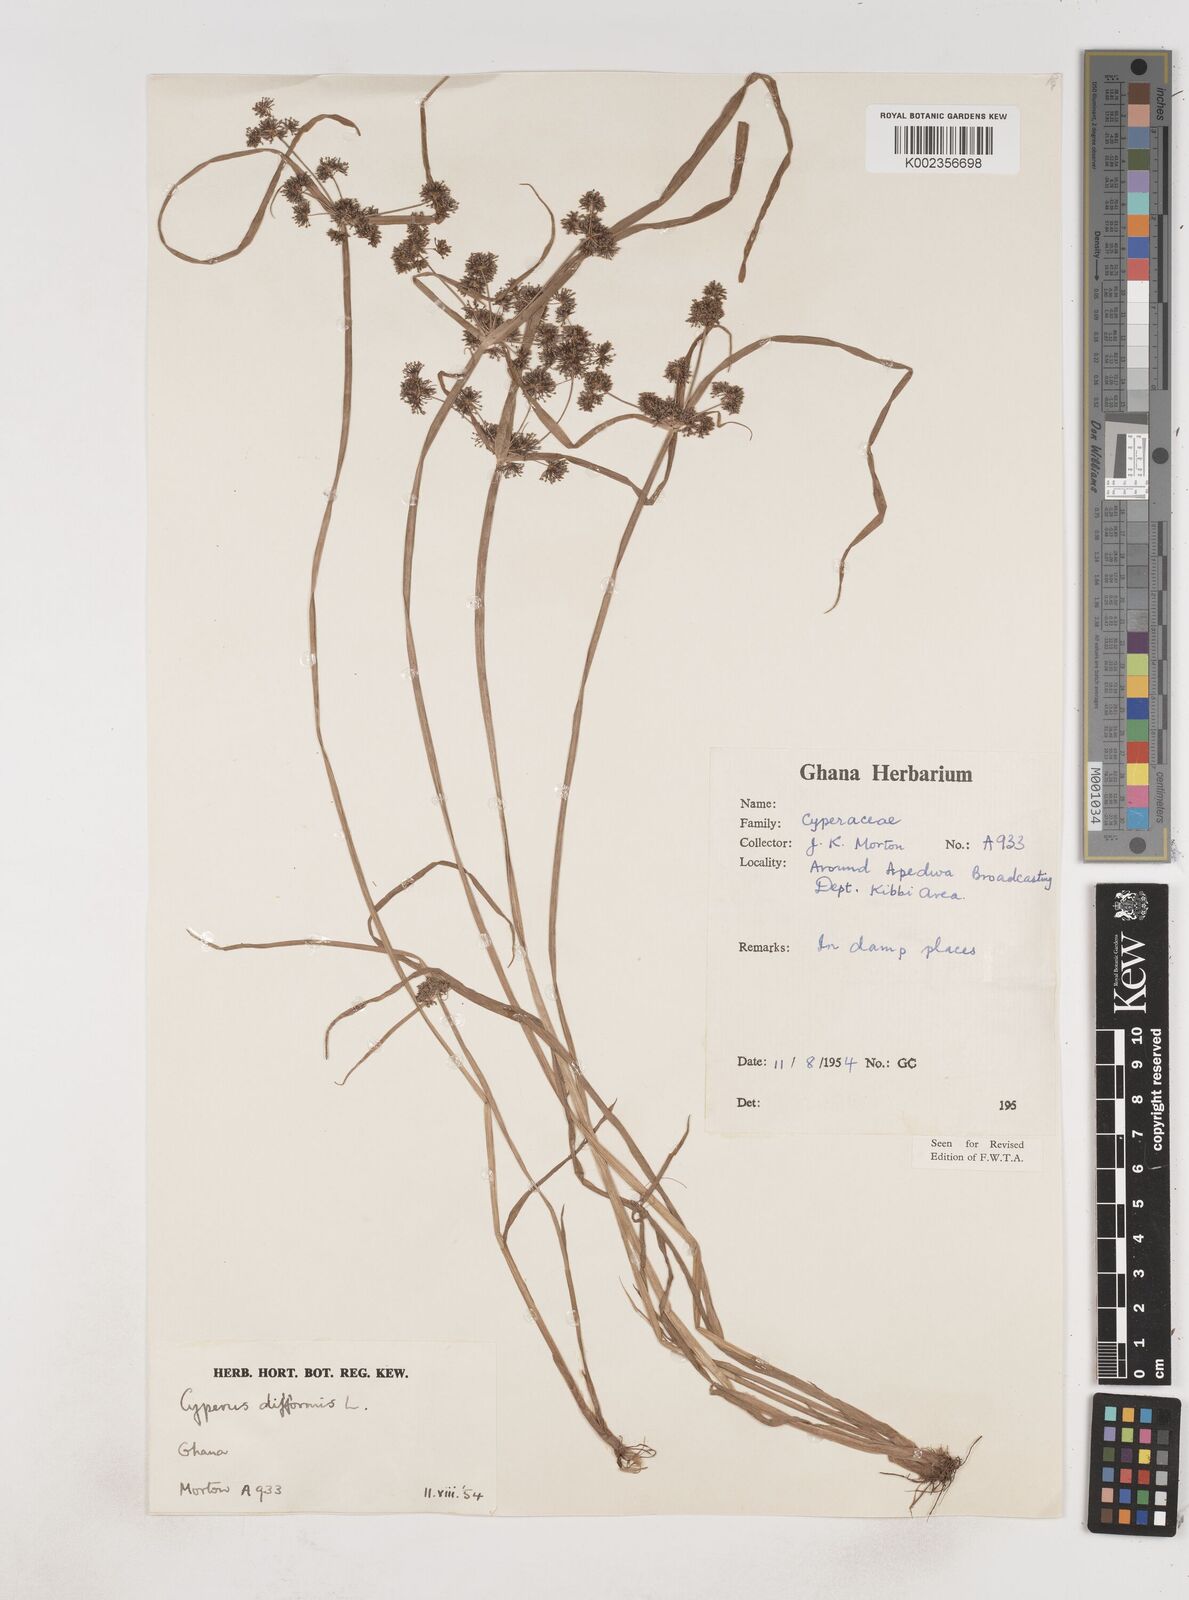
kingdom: Plantae
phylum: Tracheophyta
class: Liliopsida
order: Poales
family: Cyperaceae
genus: Cyperus
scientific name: Cyperus difformis
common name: Variable flatsedge
